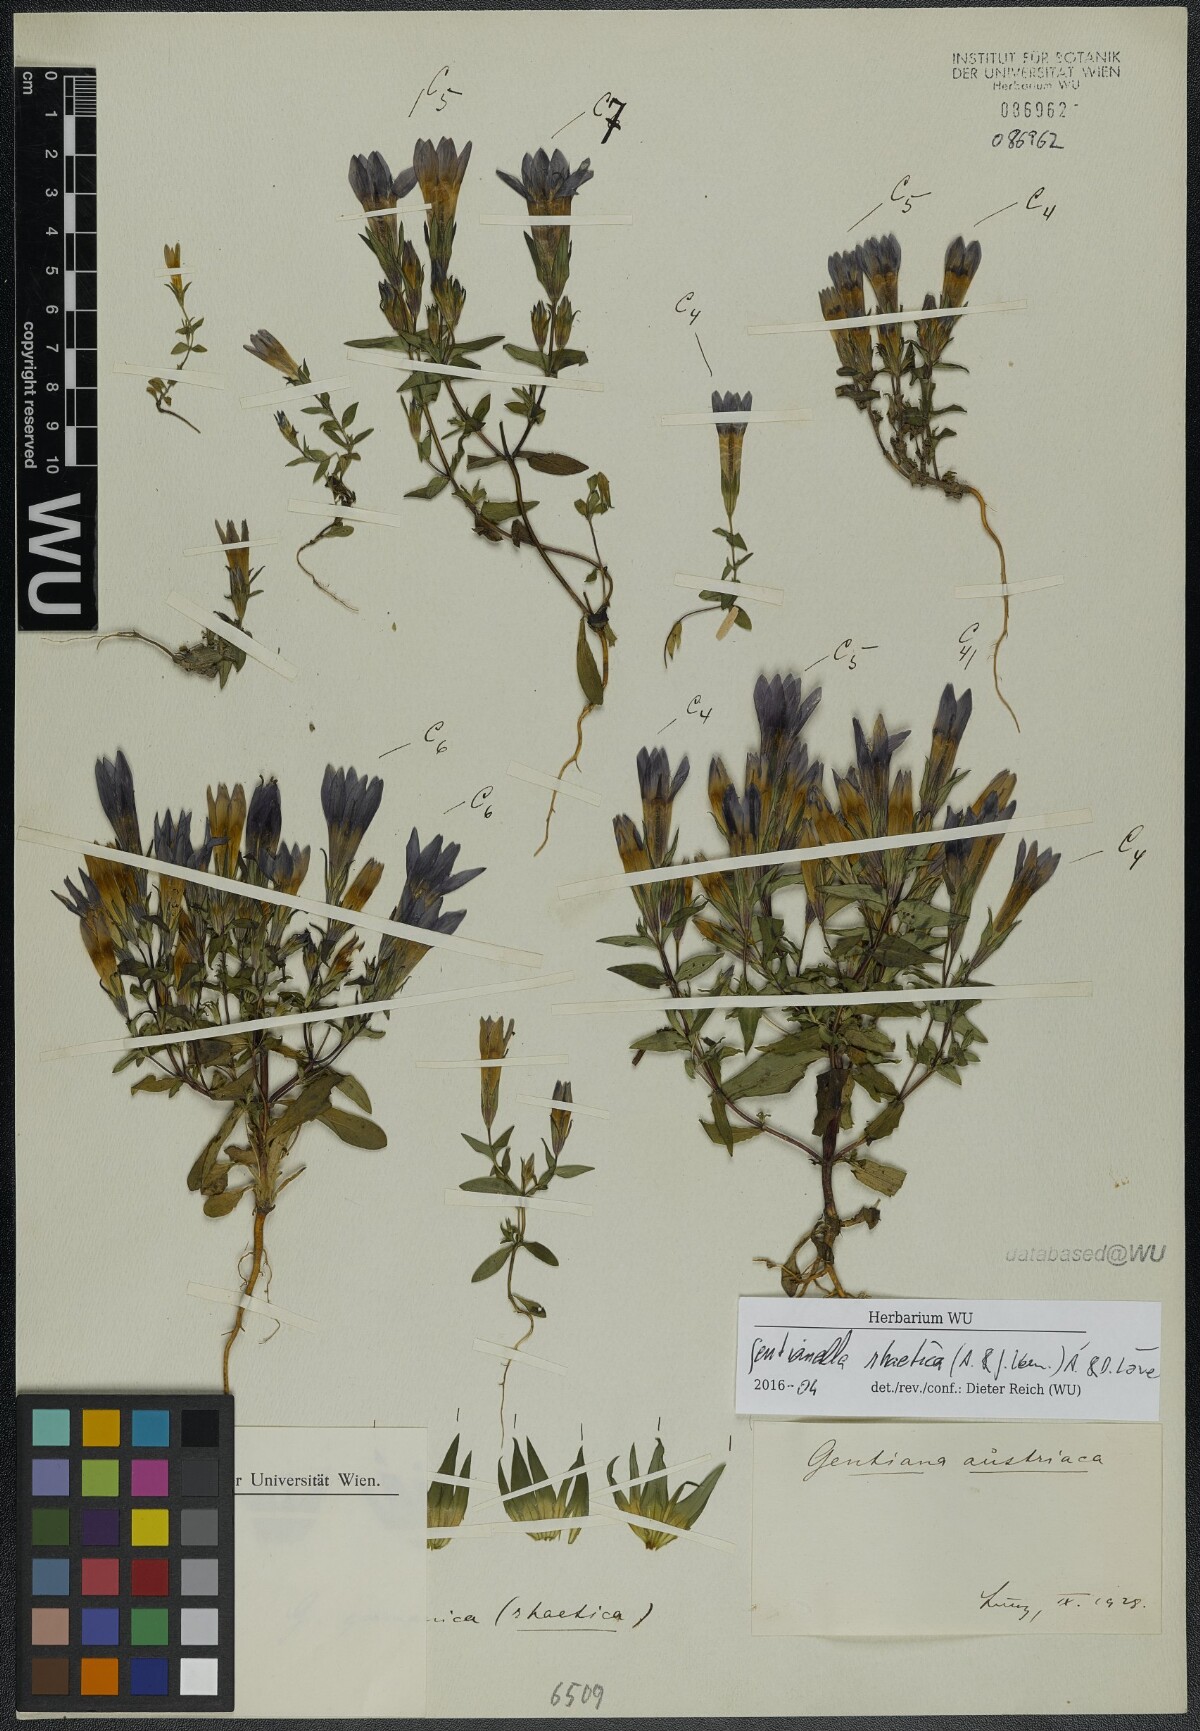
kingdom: Plantae
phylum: Tracheophyta
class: Magnoliopsida
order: Gentianales
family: Gentianaceae
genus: Gentianella
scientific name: Gentianella rhaetica
